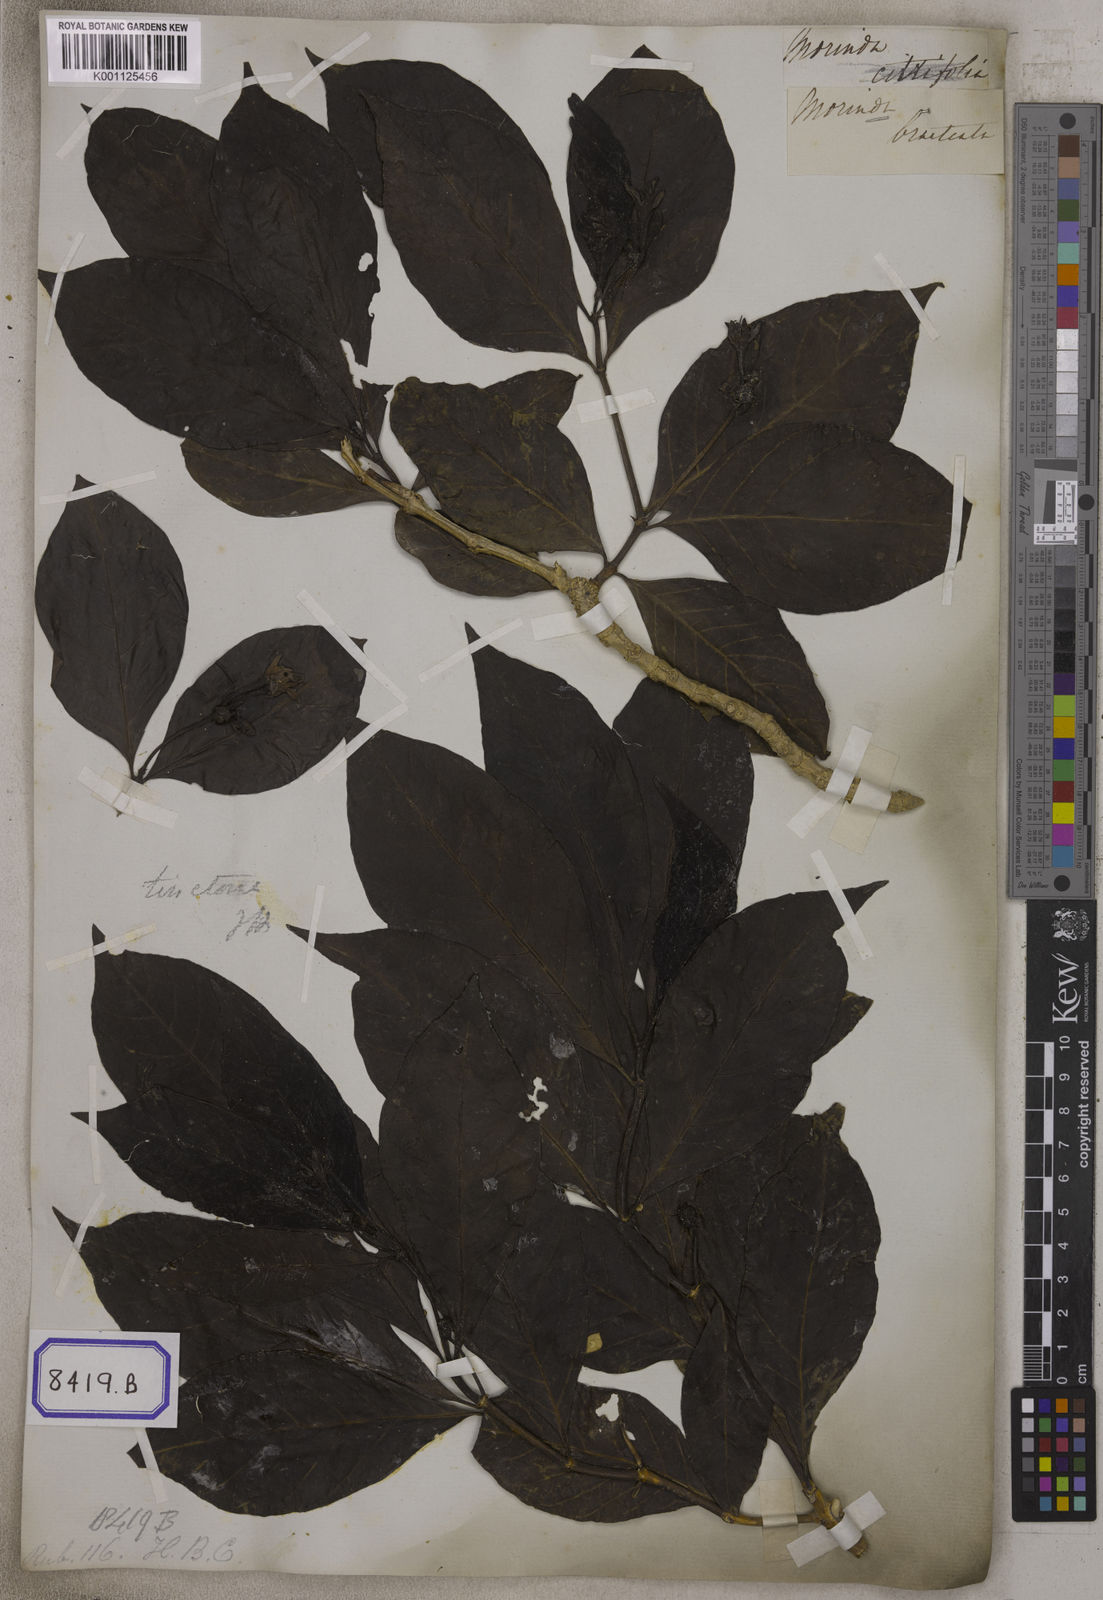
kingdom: Plantae
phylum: Tracheophyta
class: Magnoliopsida
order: Gentianales
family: Rubiaceae
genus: Morinda
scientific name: Morinda bracteata
